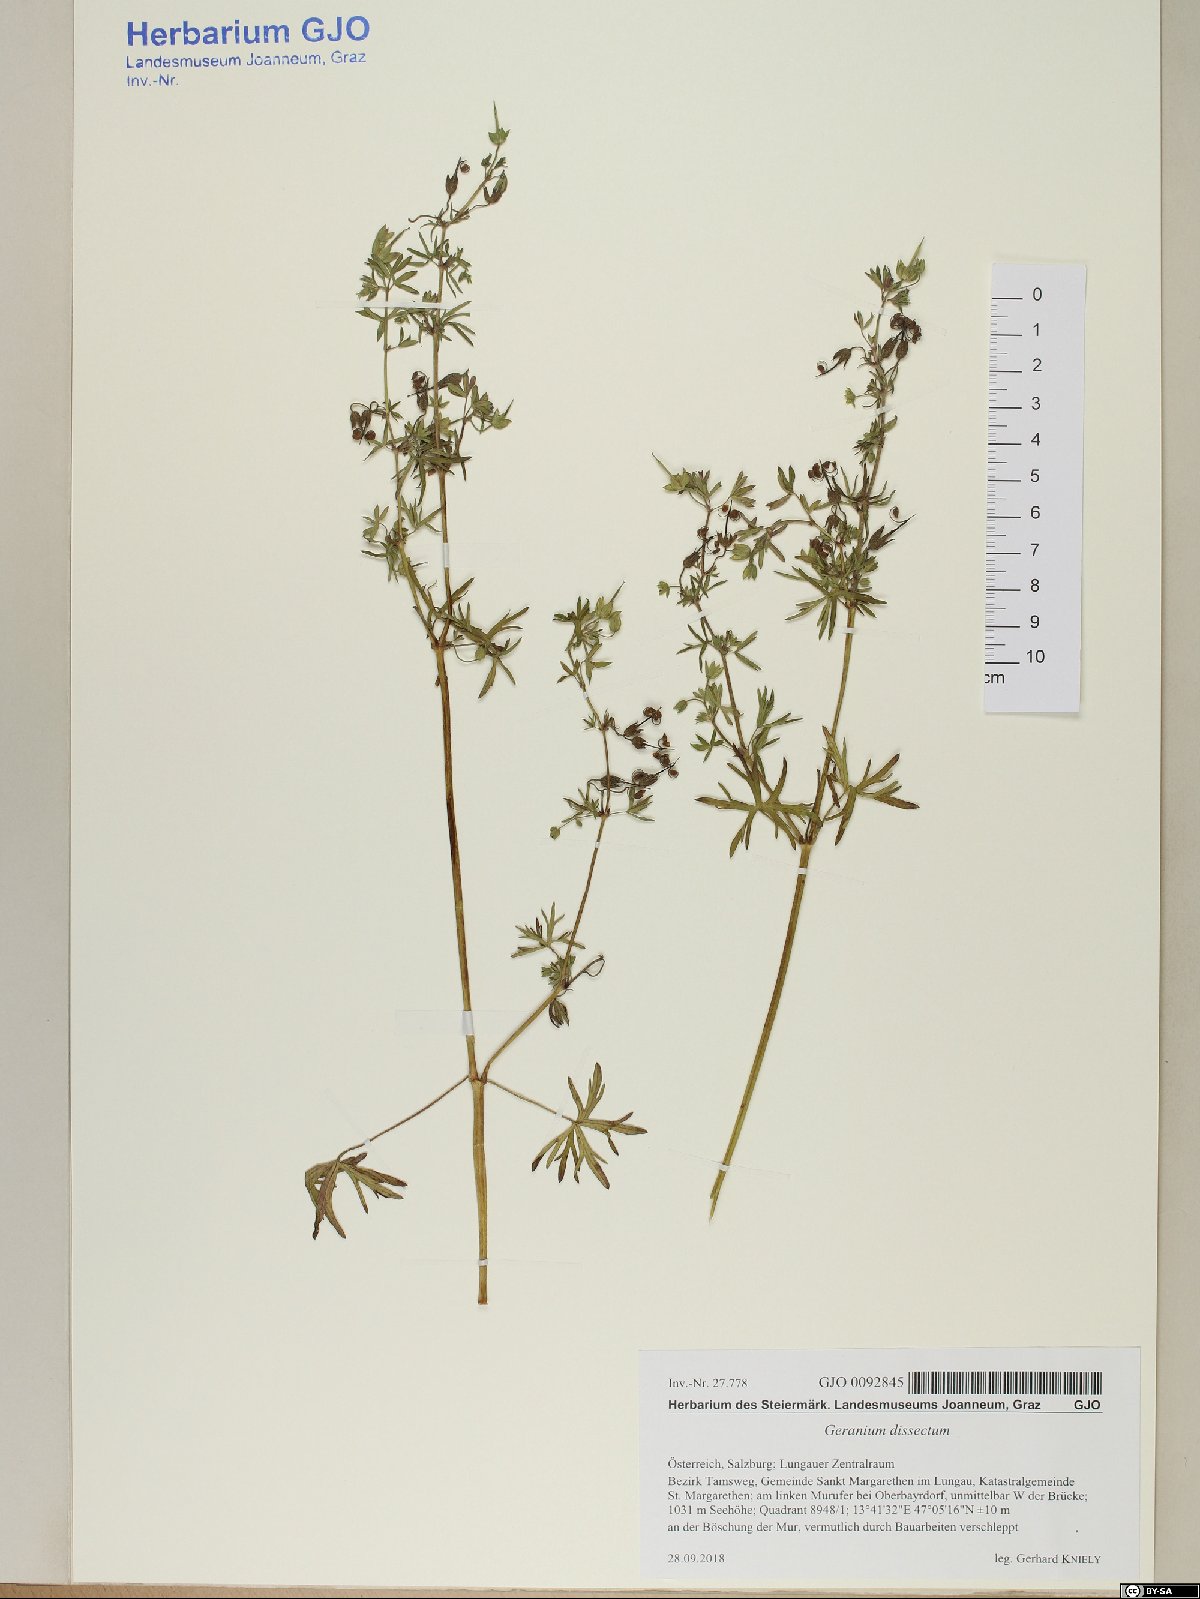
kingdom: Plantae
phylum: Tracheophyta
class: Magnoliopsida
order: Geraniales
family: Geraniaceae
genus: Geranium
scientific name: Geranium dissectum
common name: Cut-leaved crane's-bill
